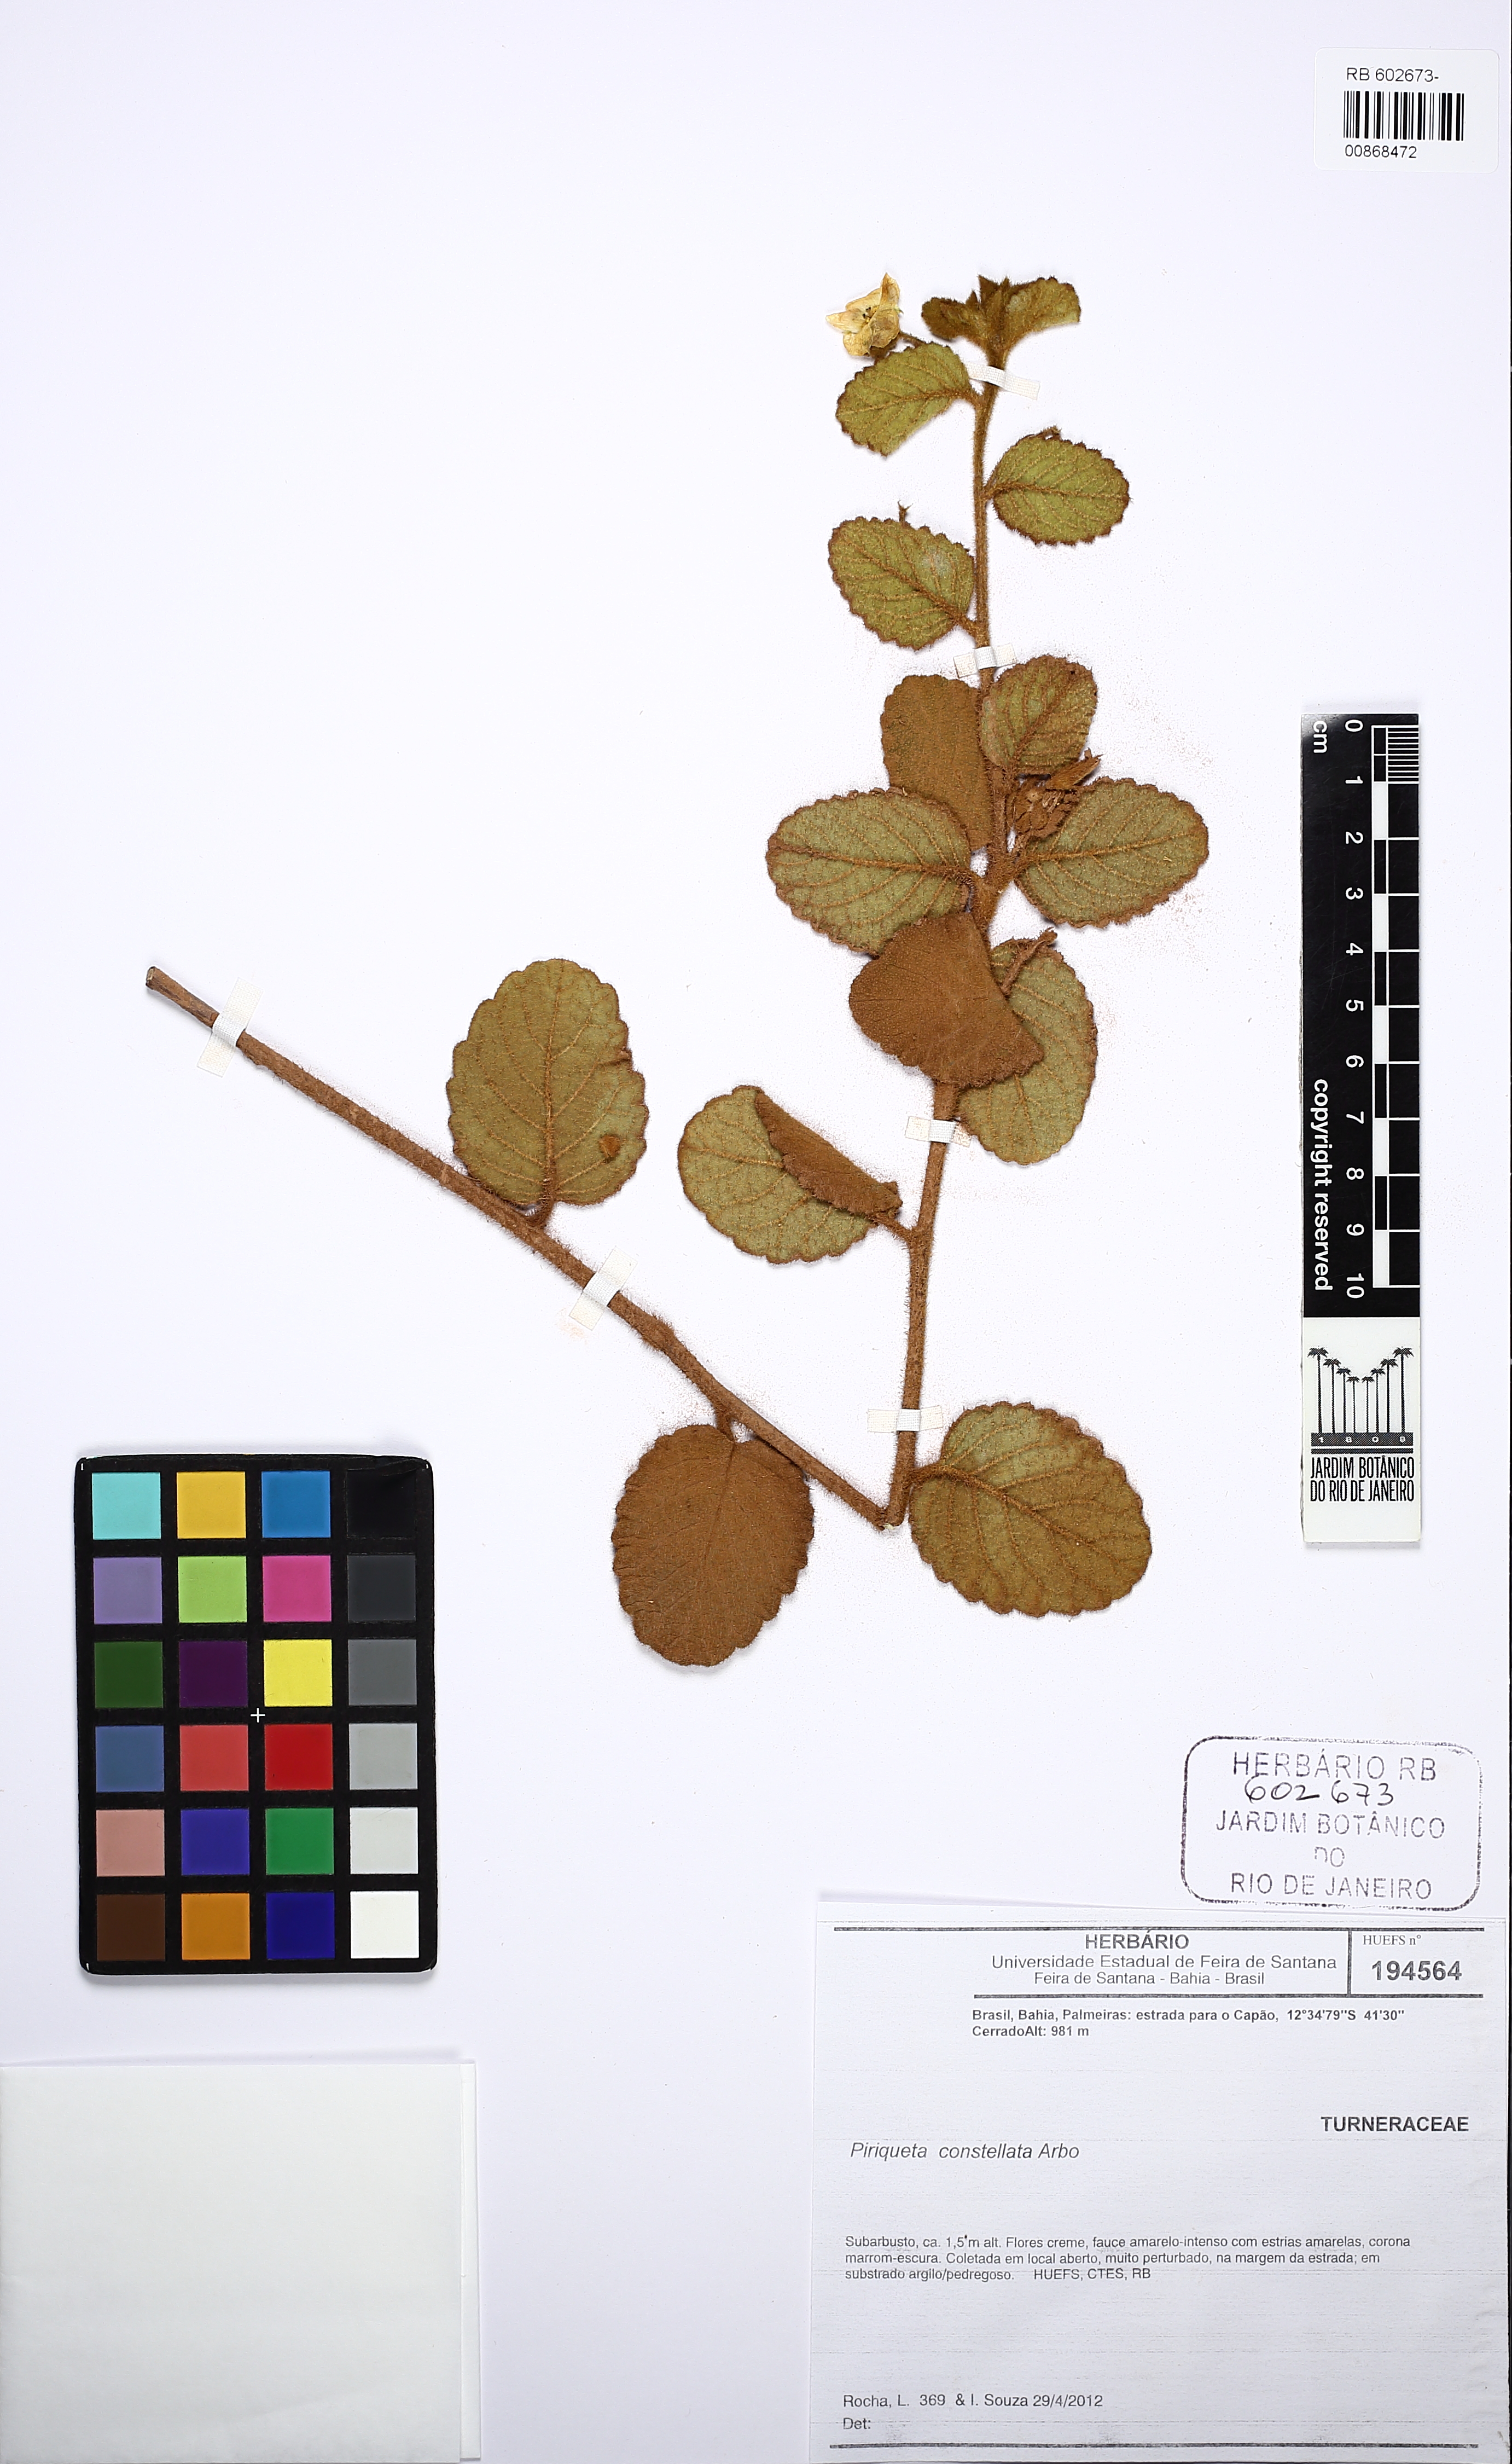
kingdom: Plantae
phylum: Tracheophyta
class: Magnoliopsida
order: Malpighiales
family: Turneraceae
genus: Piriqueta
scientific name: Piriqueta constellata
